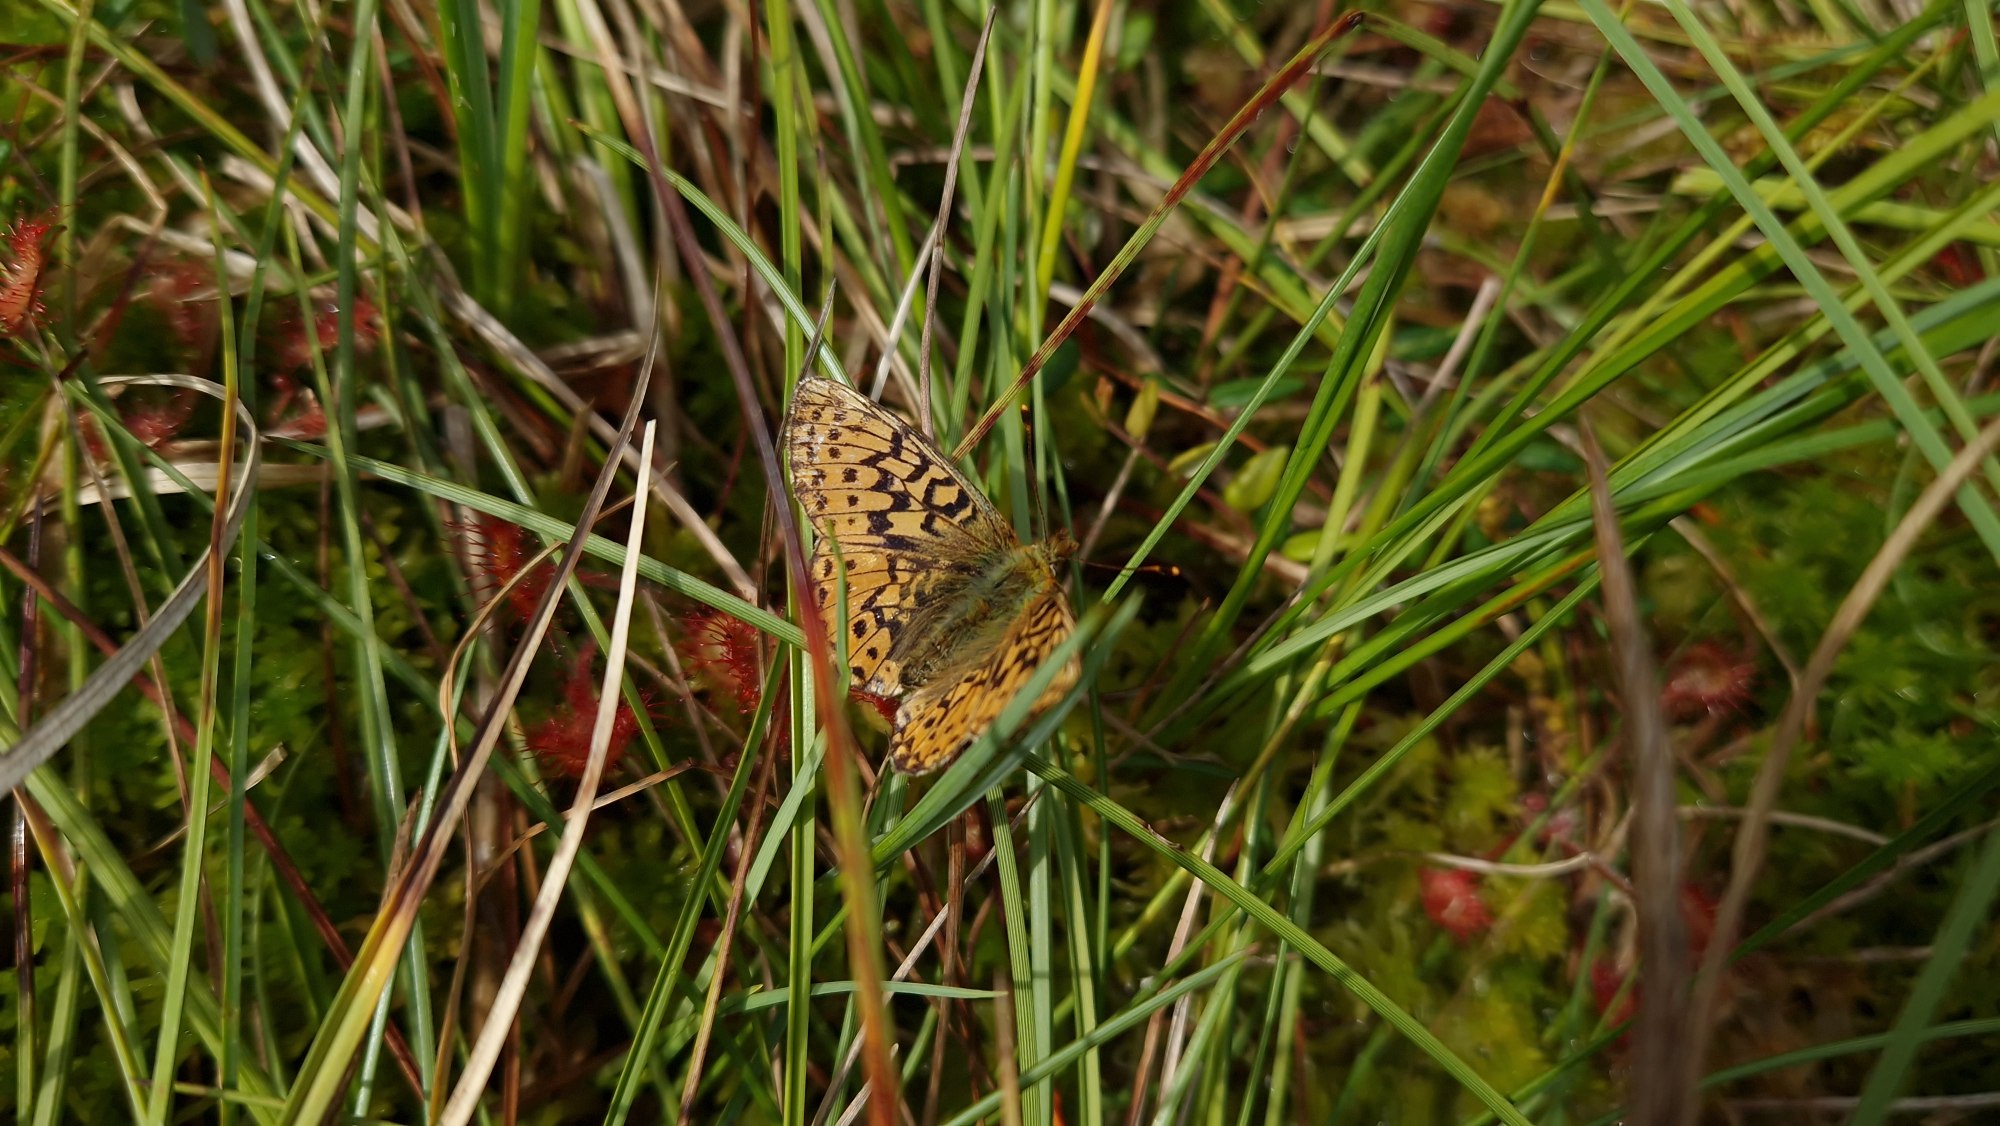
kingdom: Animalia
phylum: Arthropoda
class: Insecta
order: Lepidoptera
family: Nymphalidae
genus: Boloria
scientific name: Boloria aquilonaris
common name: Moseperlemorsommerfugl
